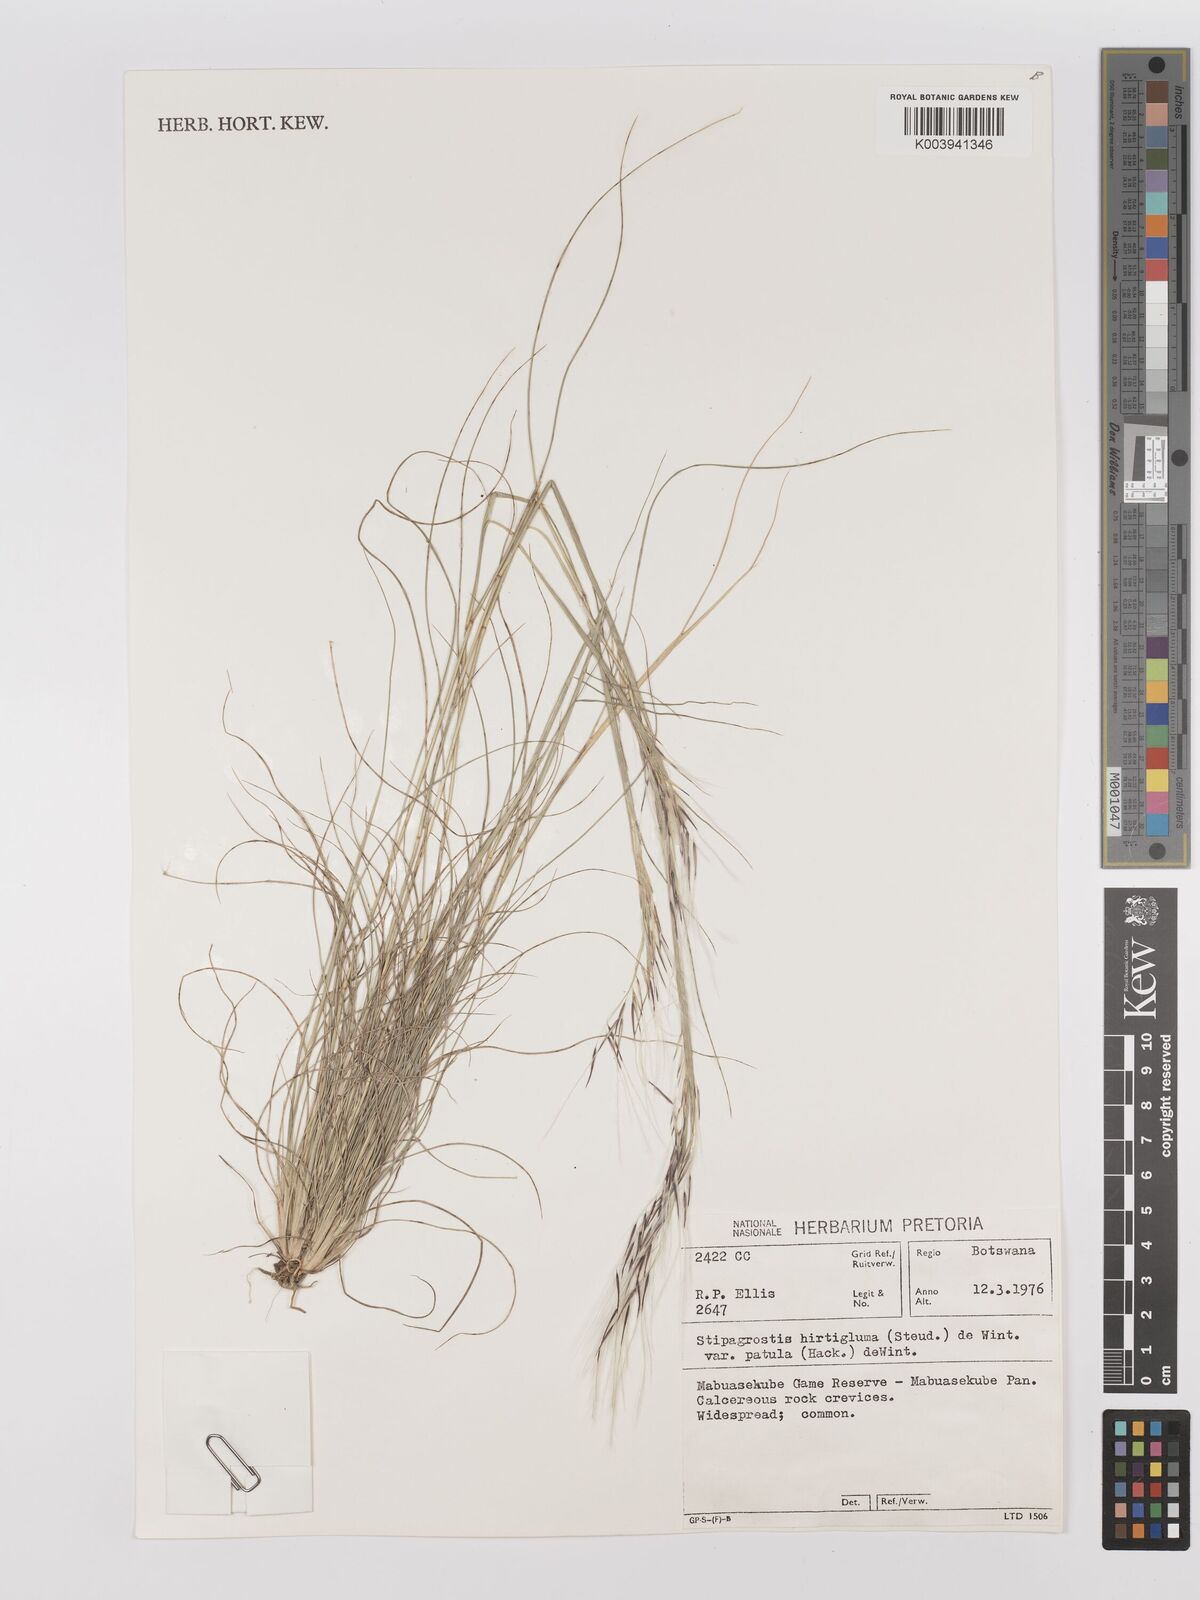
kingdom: Plantae
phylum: Tracheophyta
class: Liliopsida
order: Poales
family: Poaceae
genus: Stipagrostis
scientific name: Stipagrostis hirtigluma
